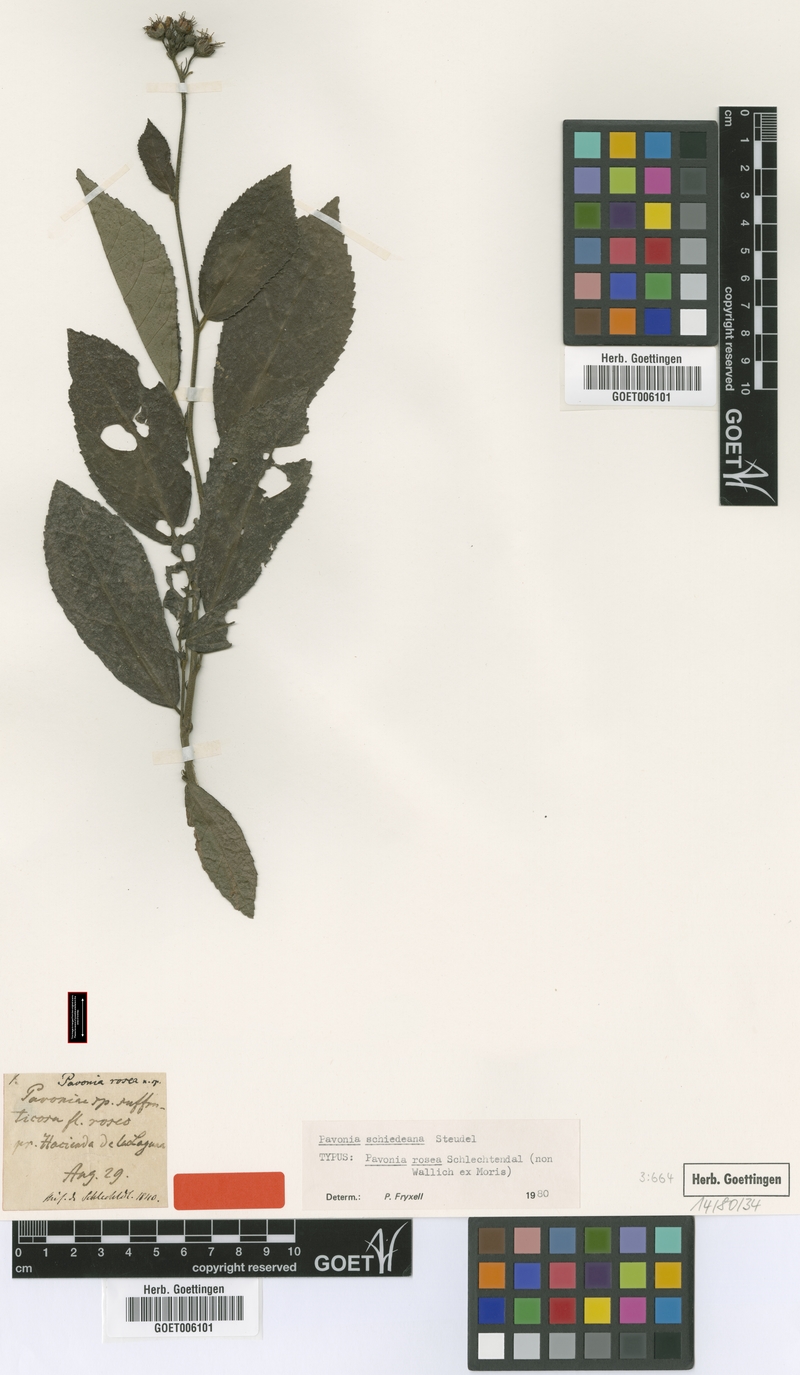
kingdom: Plantae
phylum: Tracheophyta
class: Magnoliopsida
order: Malvales
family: Malvaceae
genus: Pavonia
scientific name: Pavonia schiedeana
